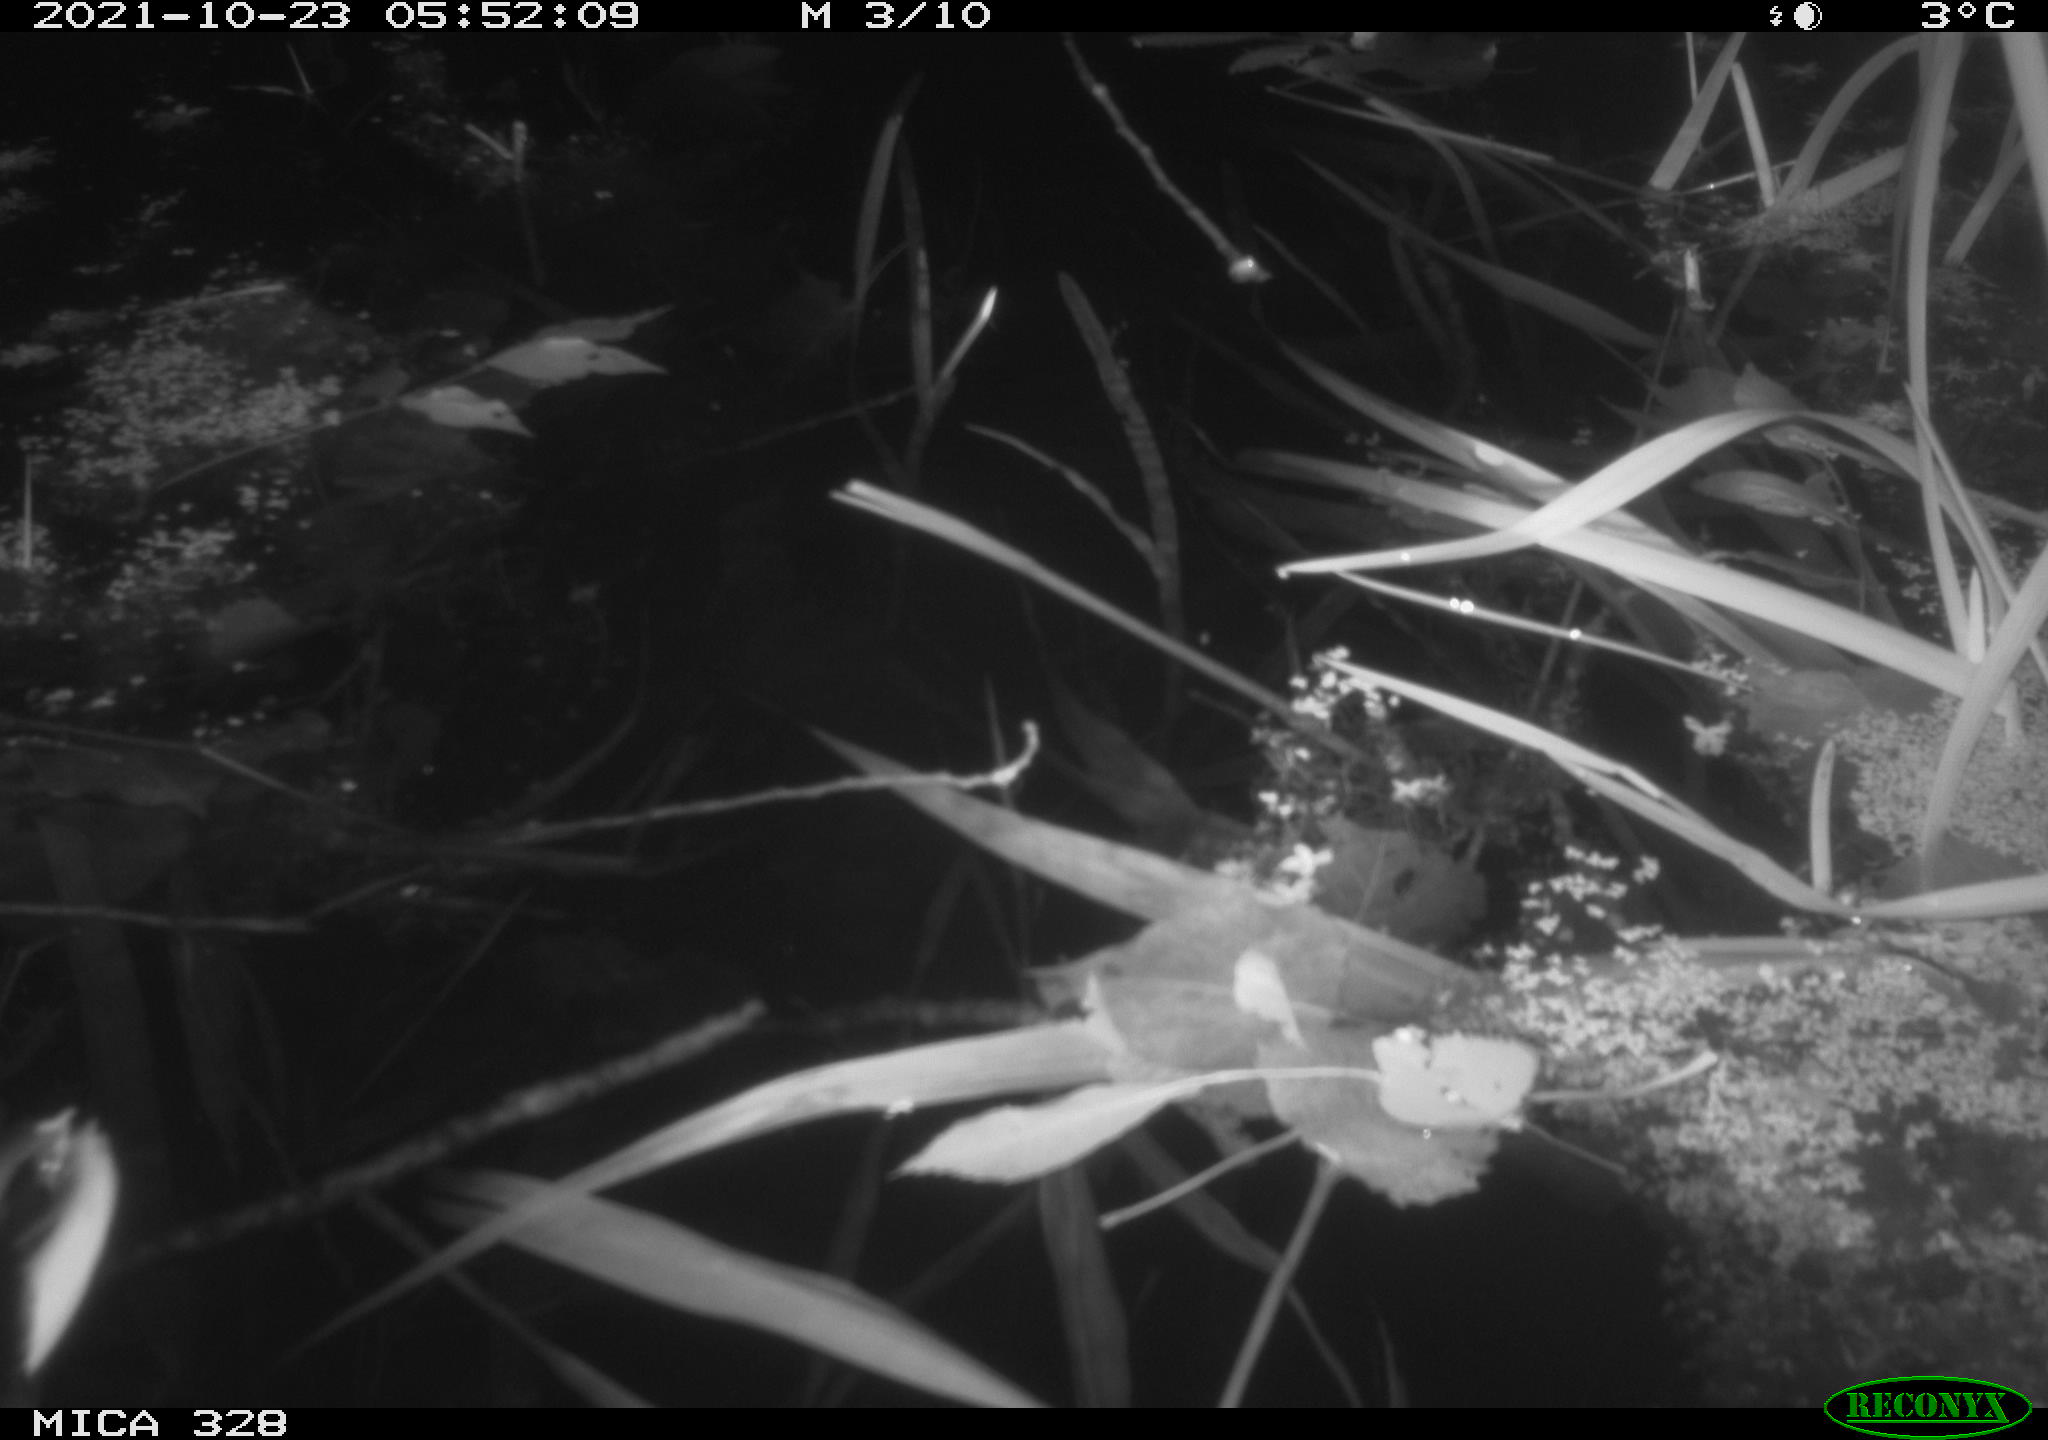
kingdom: Animalia
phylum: Chordata
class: Aves
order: Anseriformes
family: Anatidae
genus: Anas
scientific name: Anas
